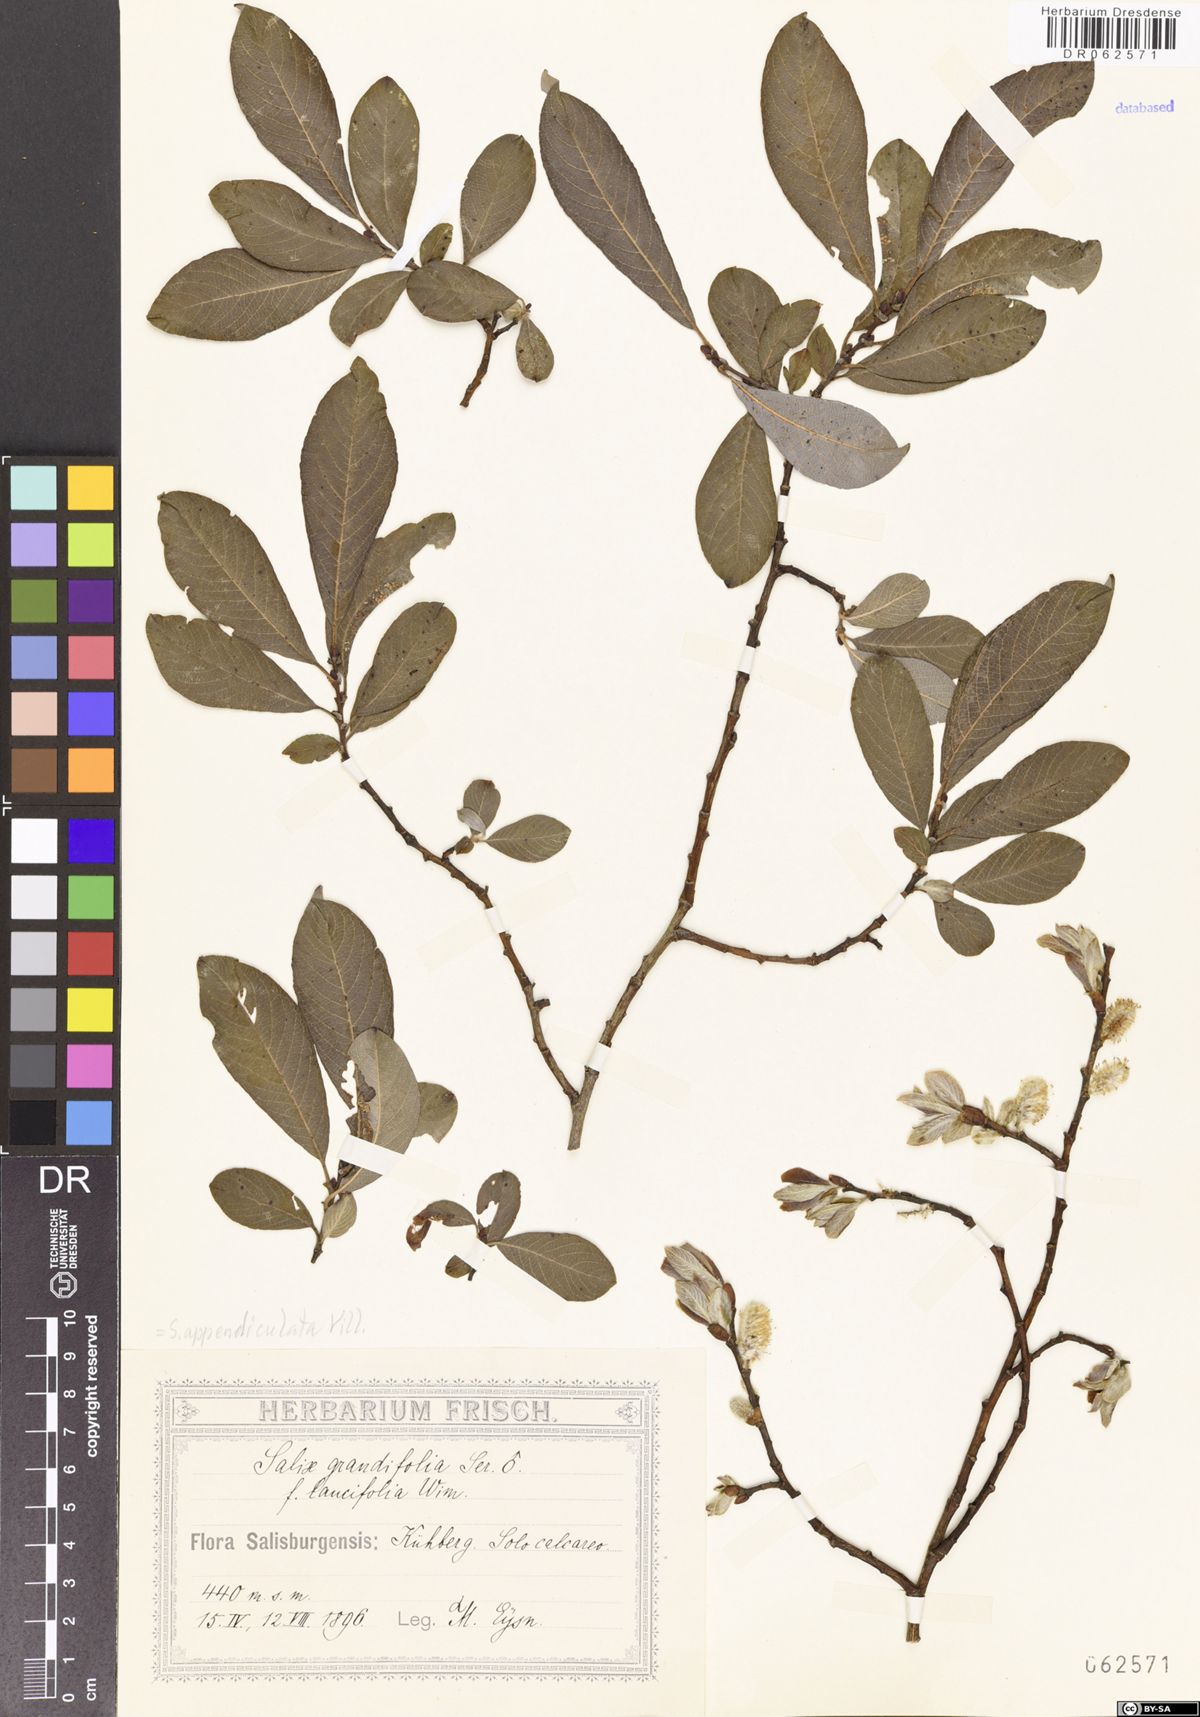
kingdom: Plantae
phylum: Tracheophyta
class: Magnoliopsida
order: Malpighiales
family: Salicaceae
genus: Salix
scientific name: Salix appendiculata
